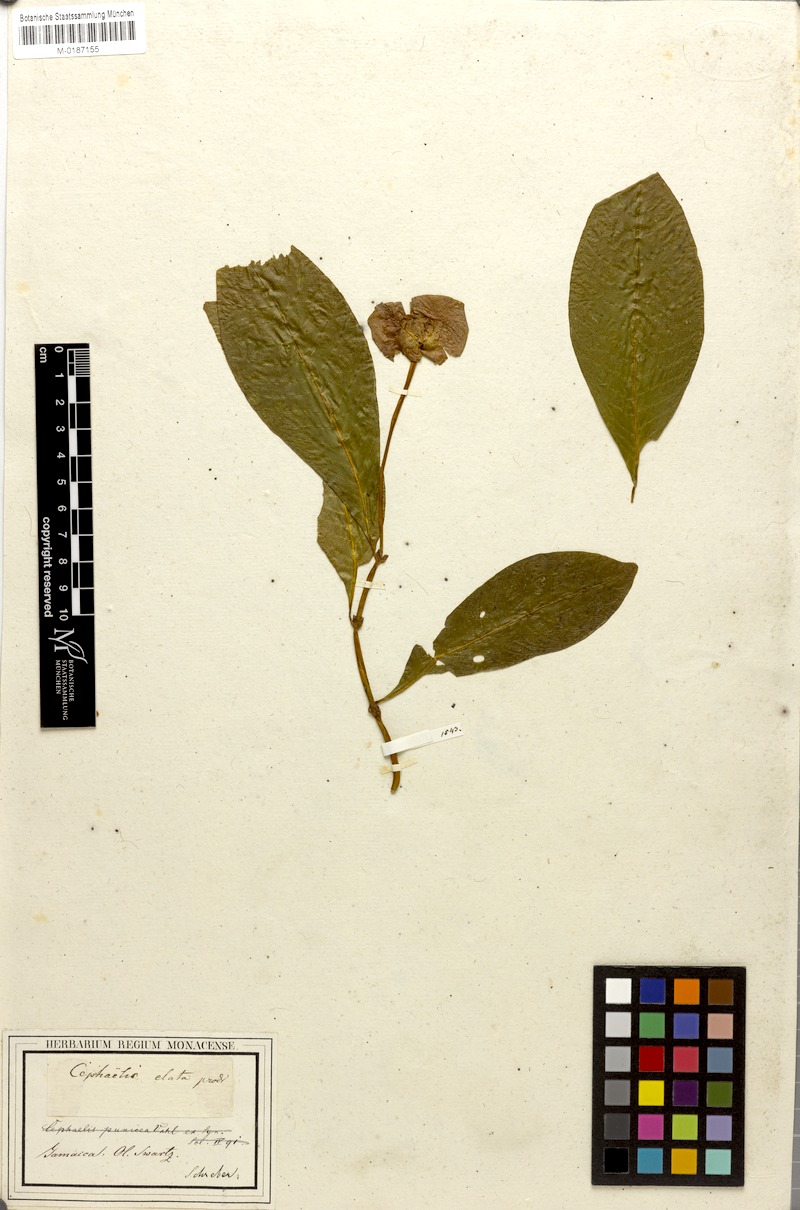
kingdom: Plantae
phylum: Tracheophyta
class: Magnoliopsida
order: Gentianales
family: Rubiaceae
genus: Palicourea
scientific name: Palicourea elata
